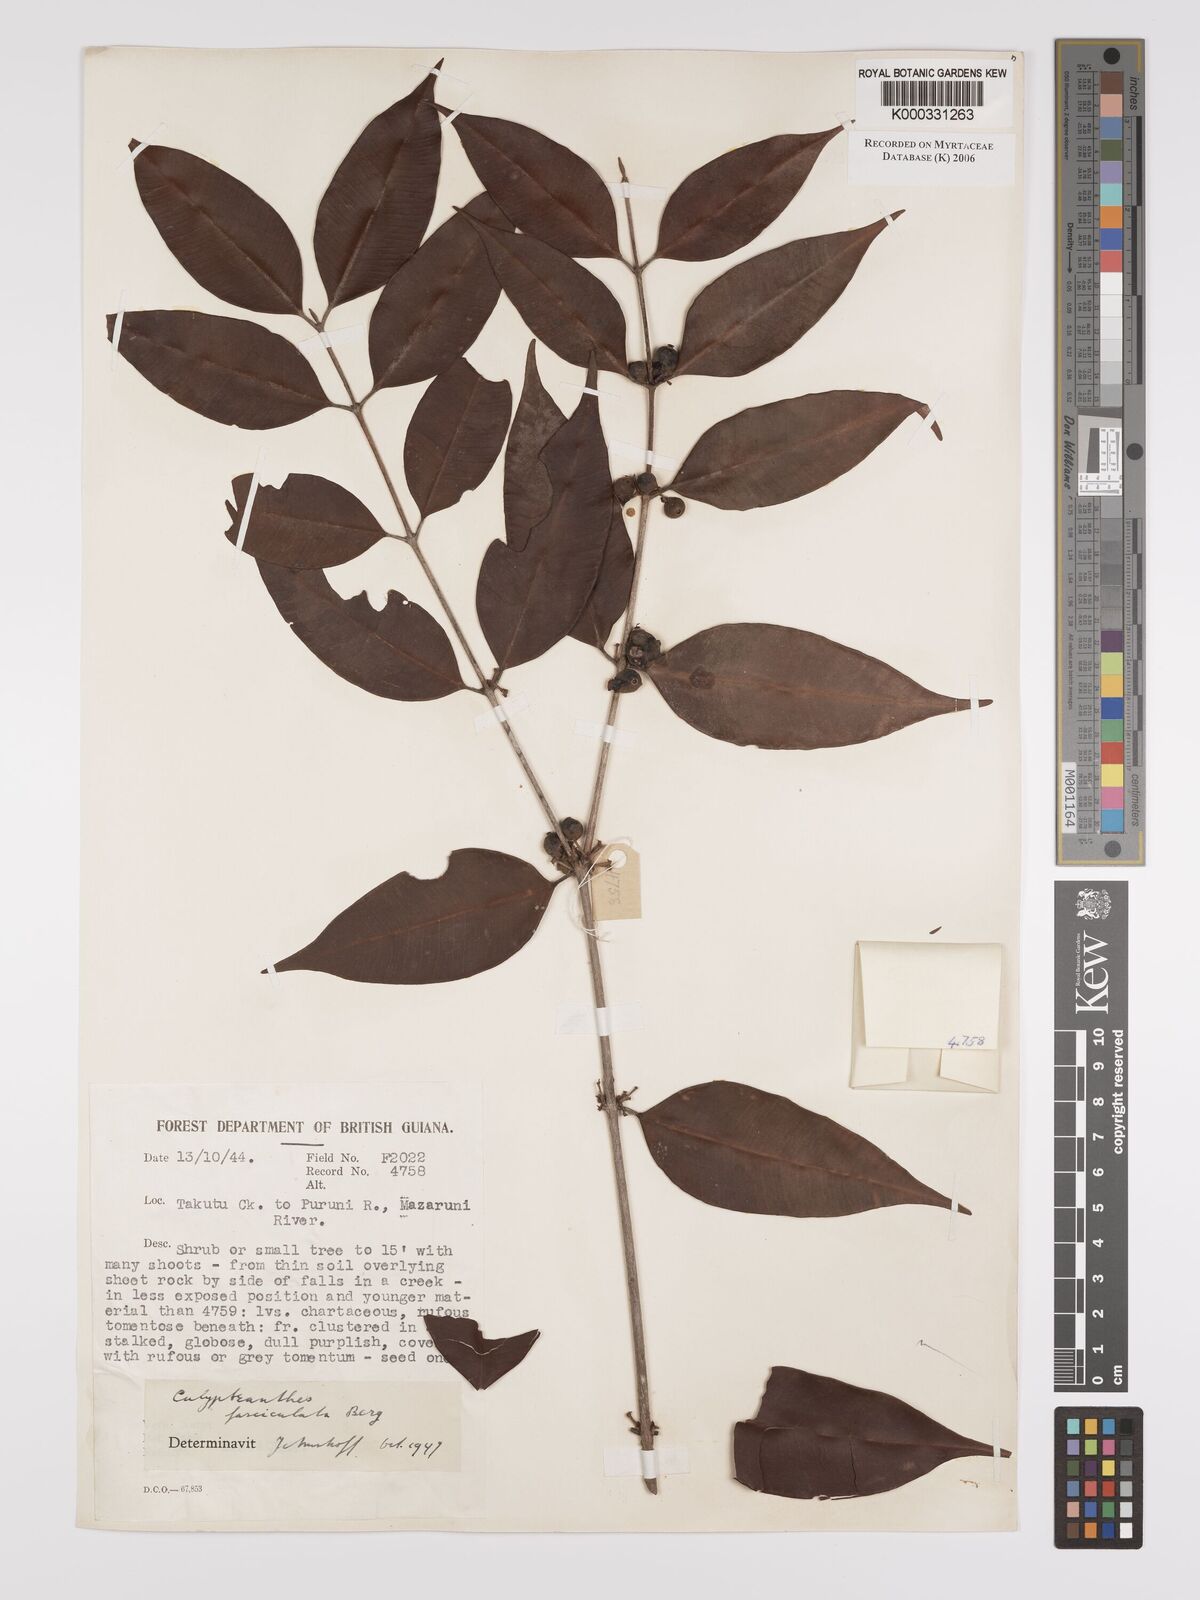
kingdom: Plantae
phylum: Tracheophyta
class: Magnoliopsida
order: Myrtales
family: Myrtaceae
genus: Myrcia
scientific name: Myrcia fasciculata
